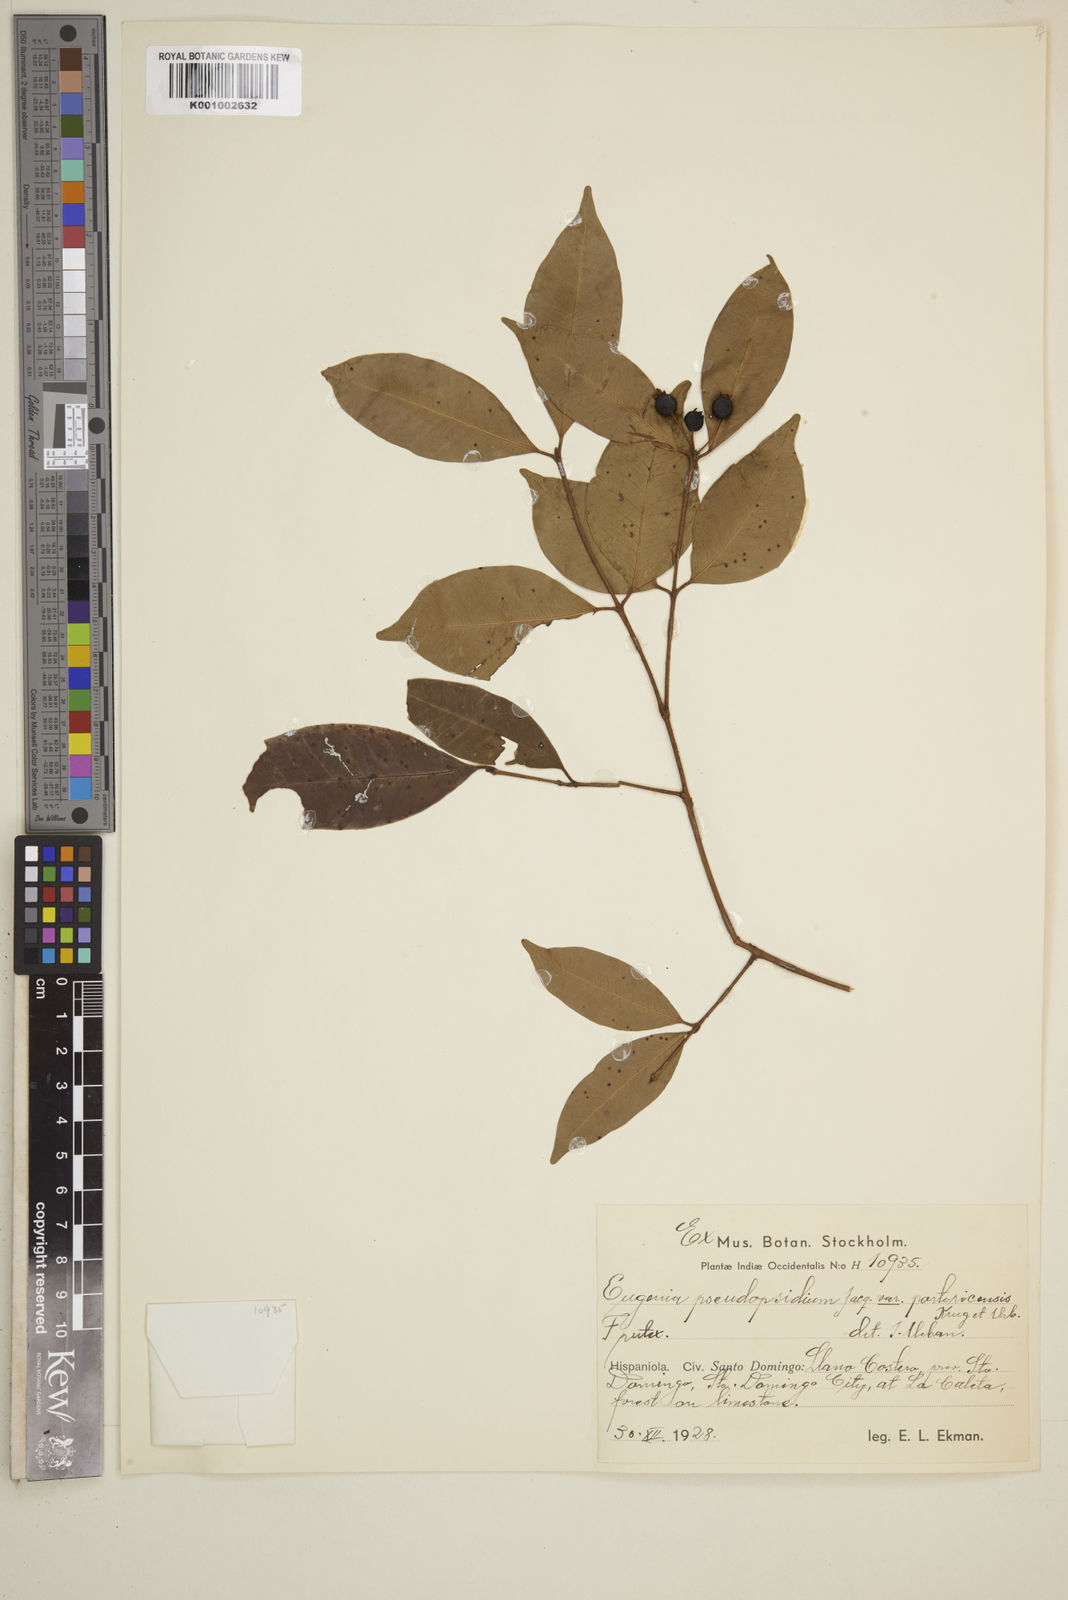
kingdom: Plantae
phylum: Tracheophyta
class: Magnoliopsida
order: Myrtales
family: Myrtaceae
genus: Eugenia
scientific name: Eugenia pseudopsidium
